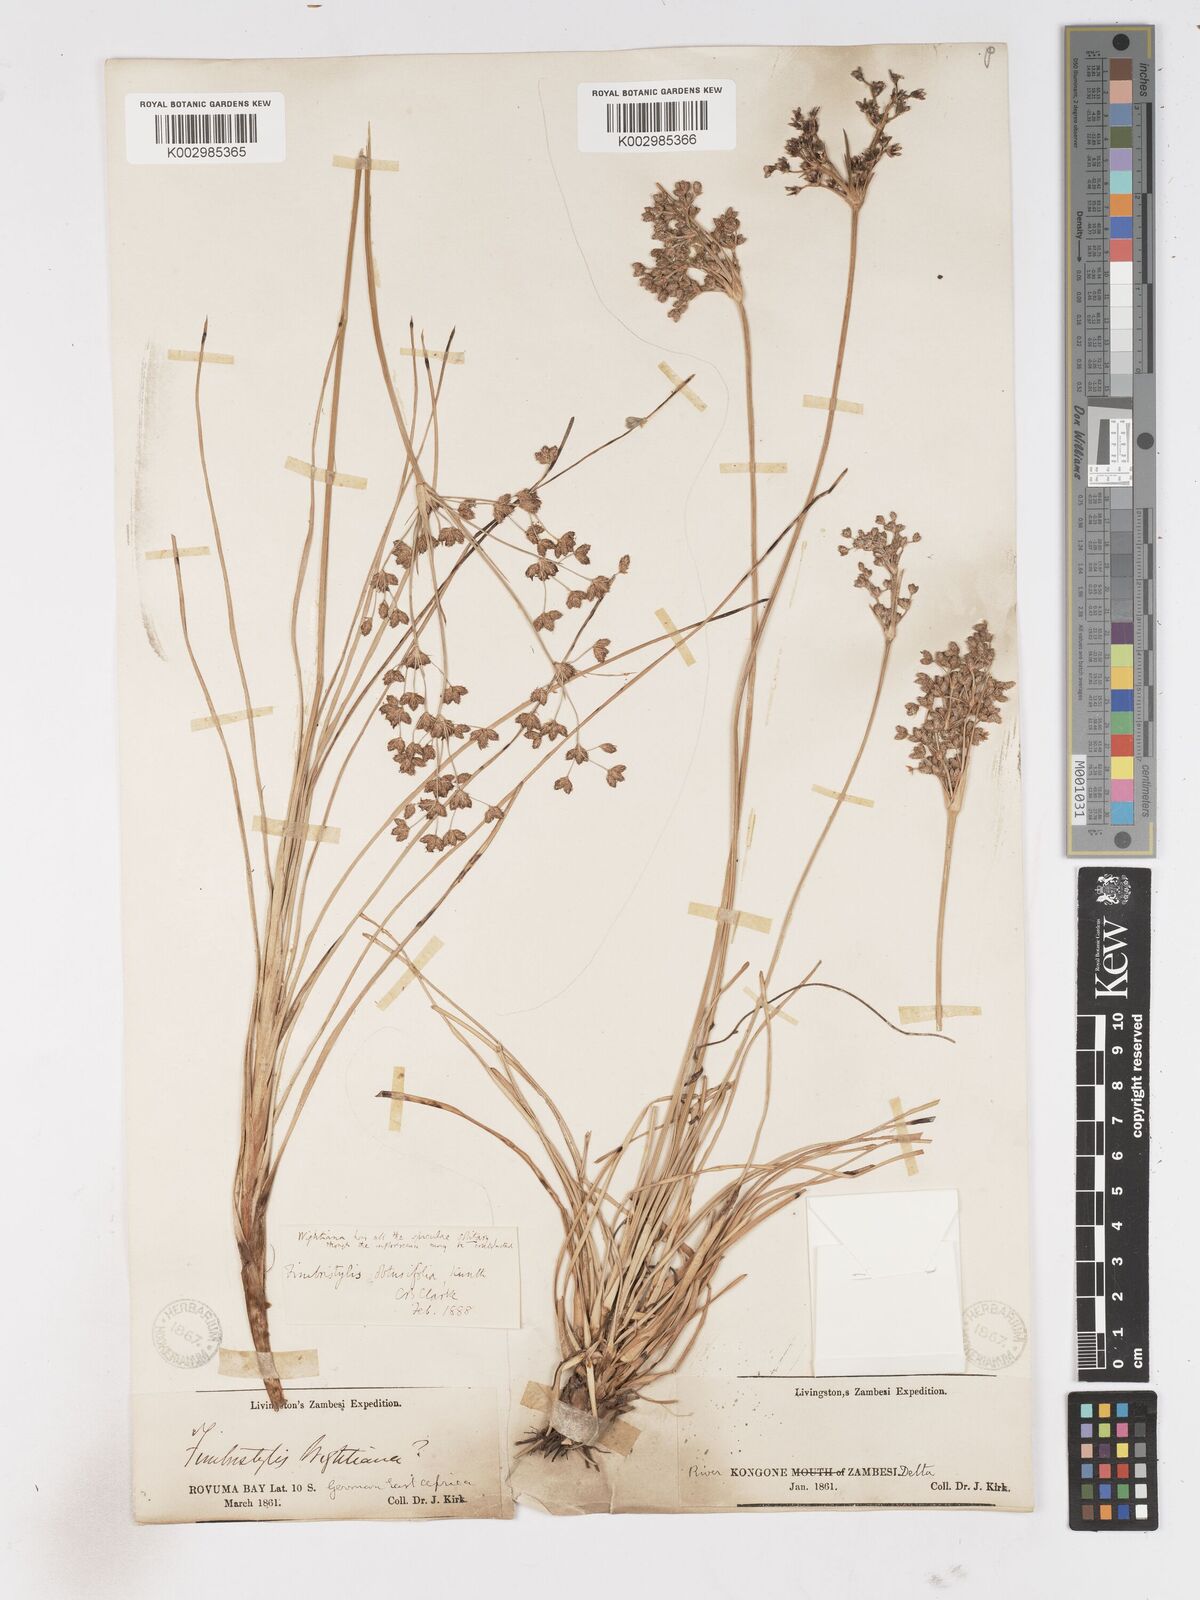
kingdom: Plantae
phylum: Tracheophyta
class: Liliopsida
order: Poales
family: Cyperaceae
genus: Fimbristylis
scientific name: Fimbristylis cymosa
